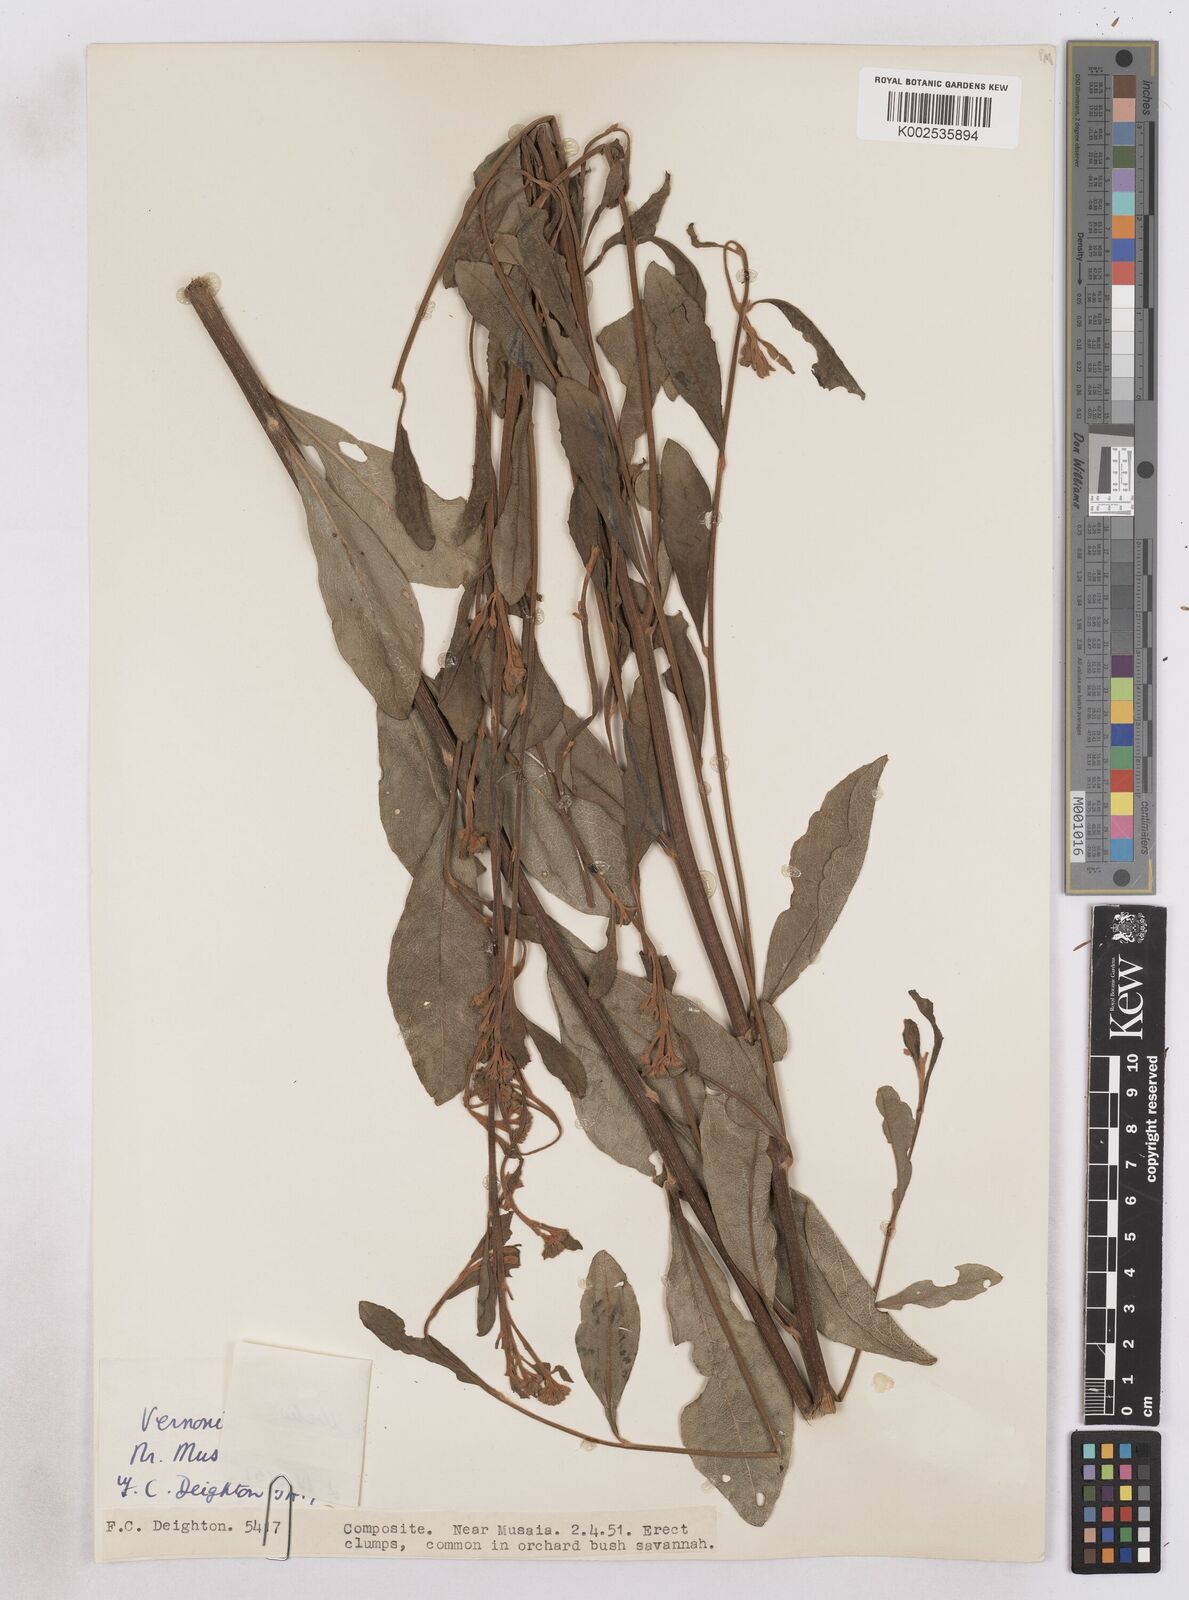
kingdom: Plantae
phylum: Tracheophyta
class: Magnoliopsida
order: Asterales
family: Asteraceae
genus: Gymnanthemum
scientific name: Gymnanthemum glaberrimum
